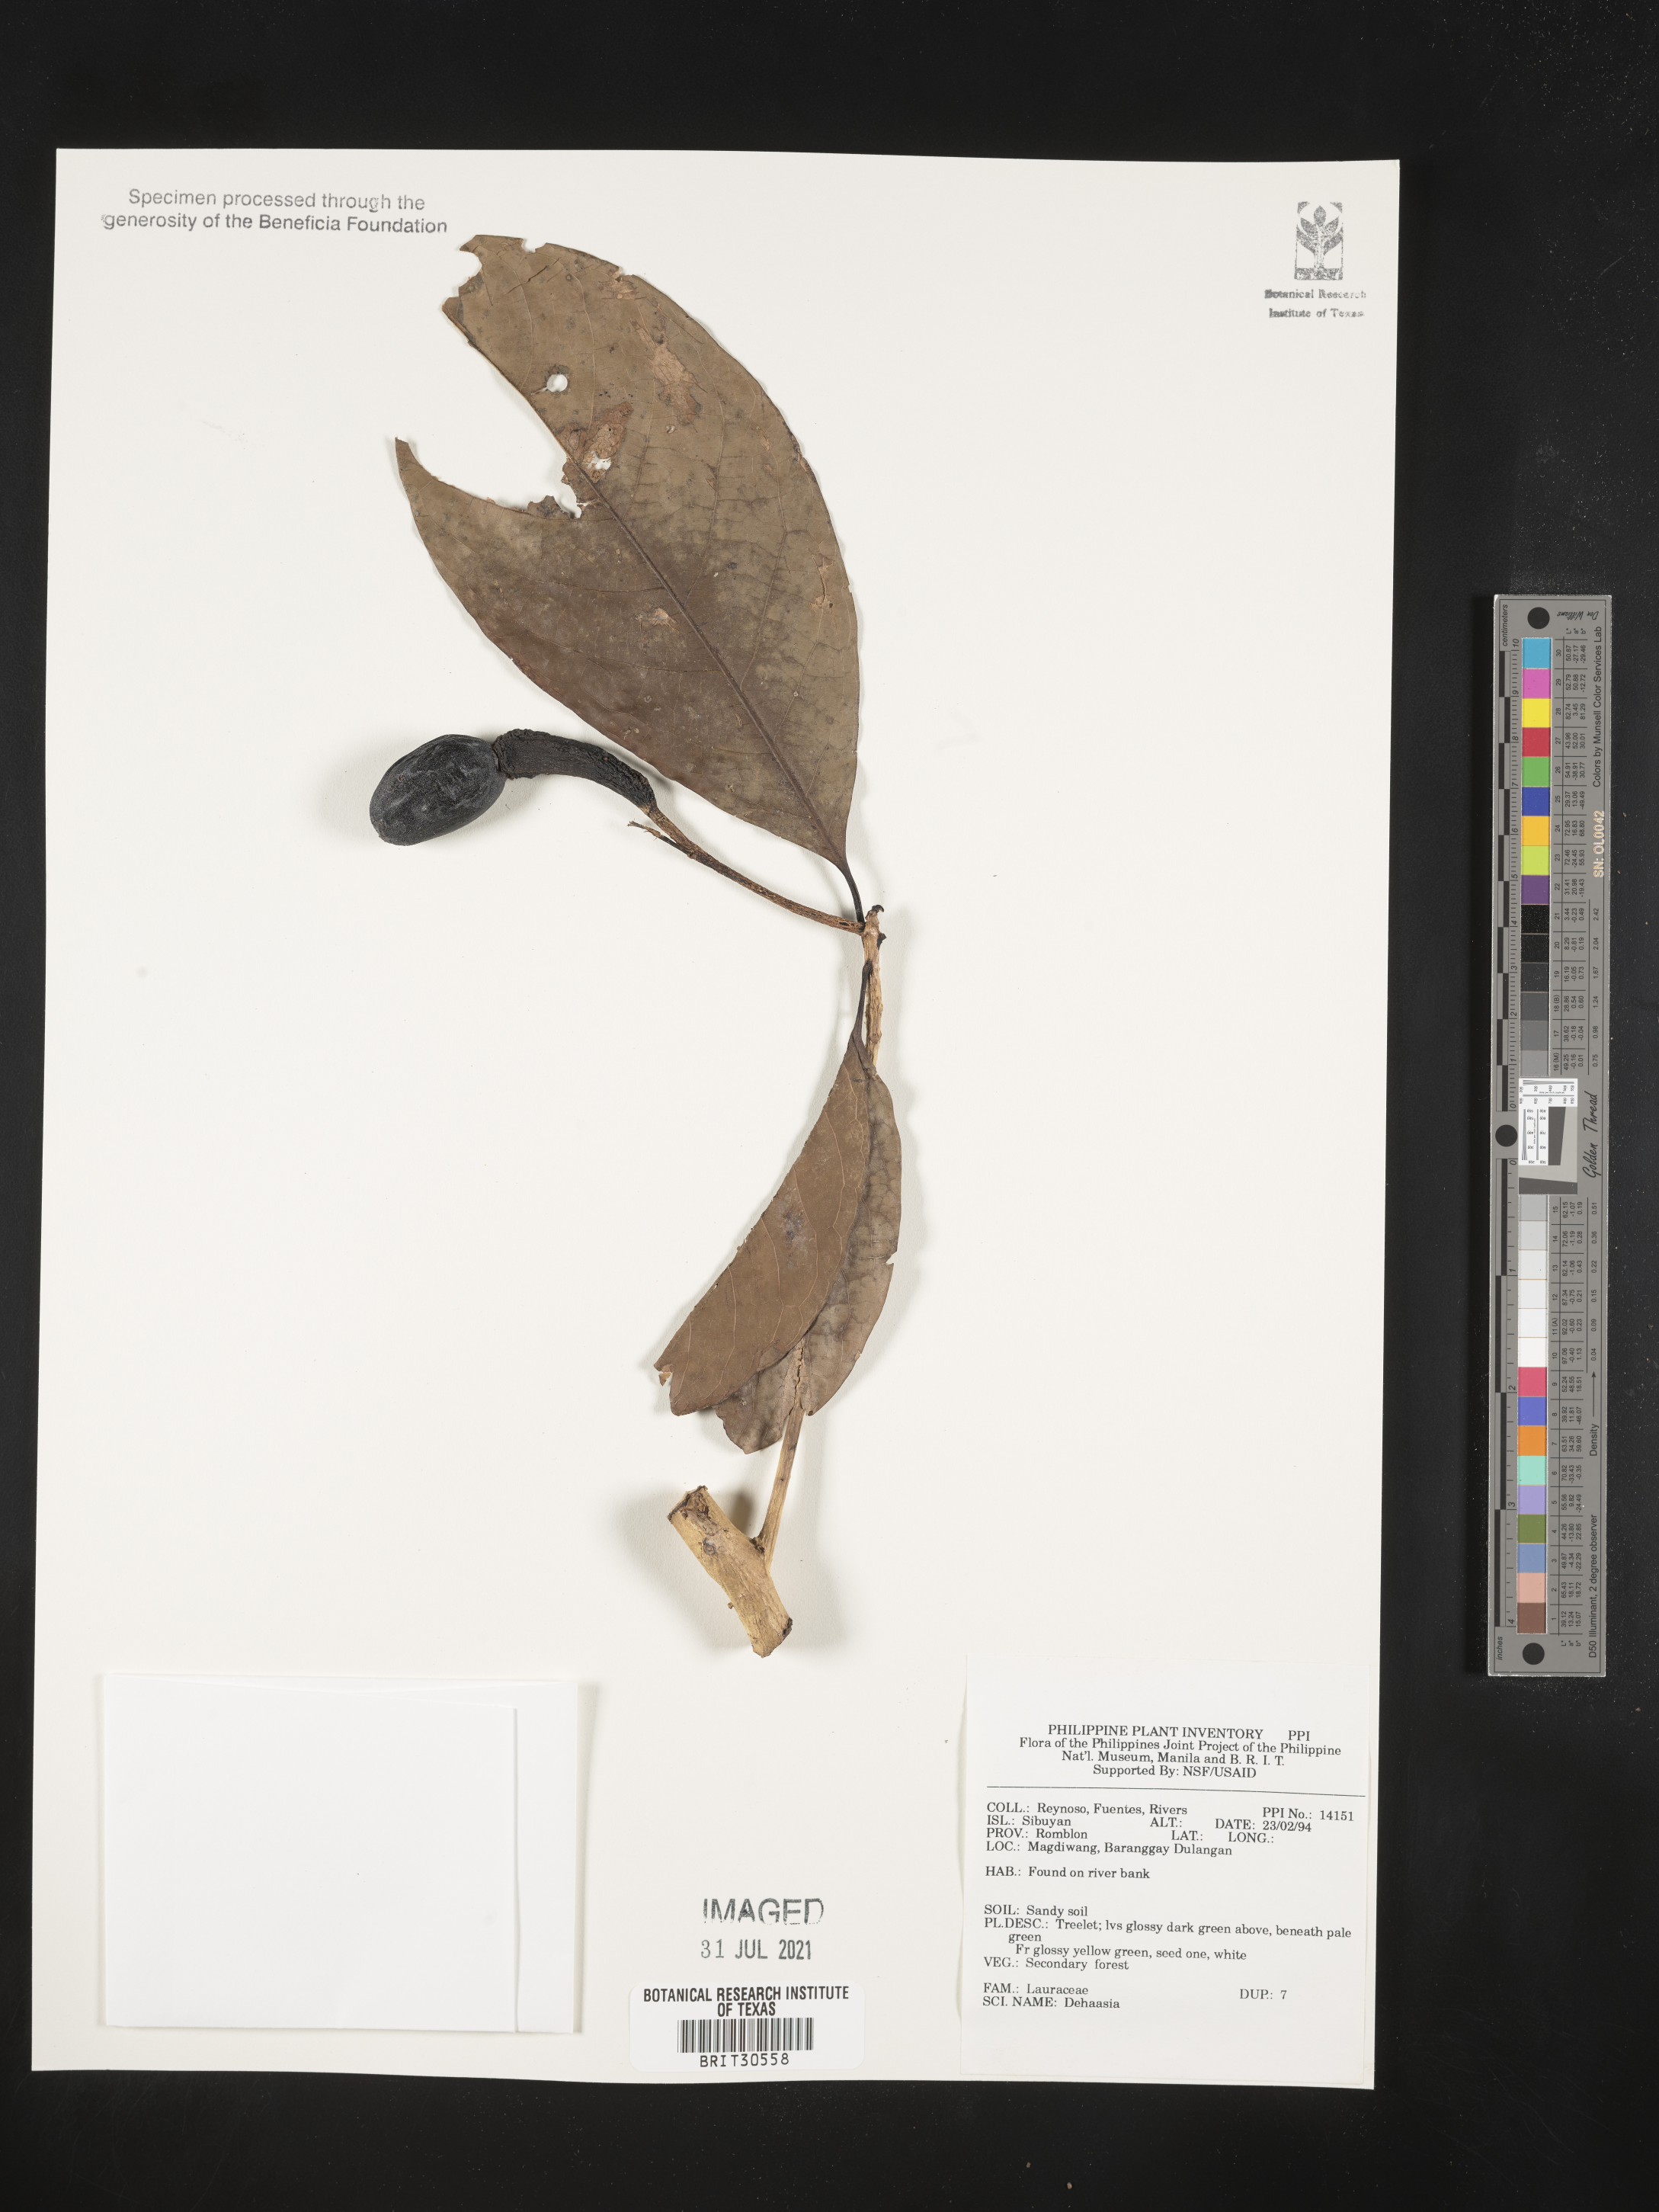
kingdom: Plantae
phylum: Tracheophyta
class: Magnoliopsida
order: Laurales
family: Lauraceae
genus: Dehaasia
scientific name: Dehaasia
